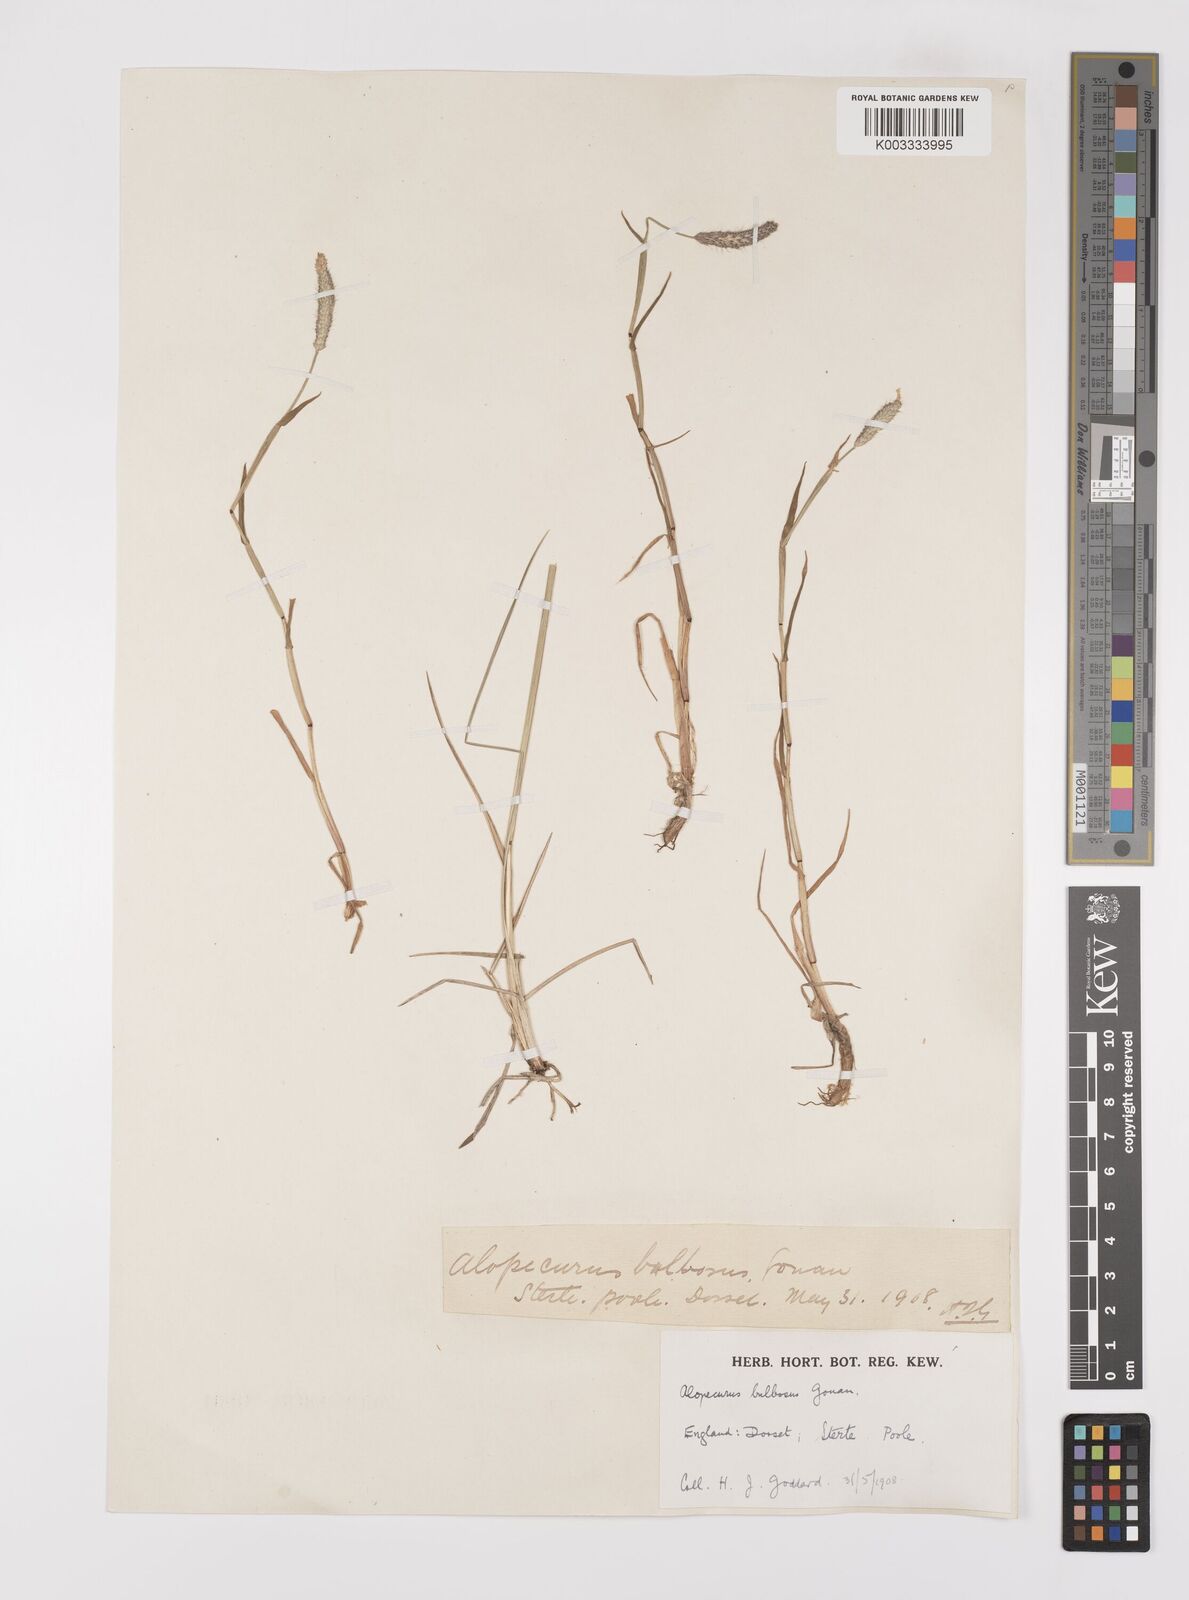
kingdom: Plantae
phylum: Tracheophyta
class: Liliopsida
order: Poales
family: Poaceae
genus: Alopecurus
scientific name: Alopecurus geniculatus
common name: Water foxtail
